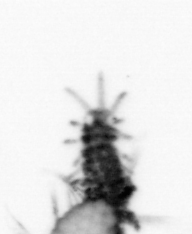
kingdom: Animalia
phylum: Annelida
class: Polychaeta
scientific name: Polychaeta
